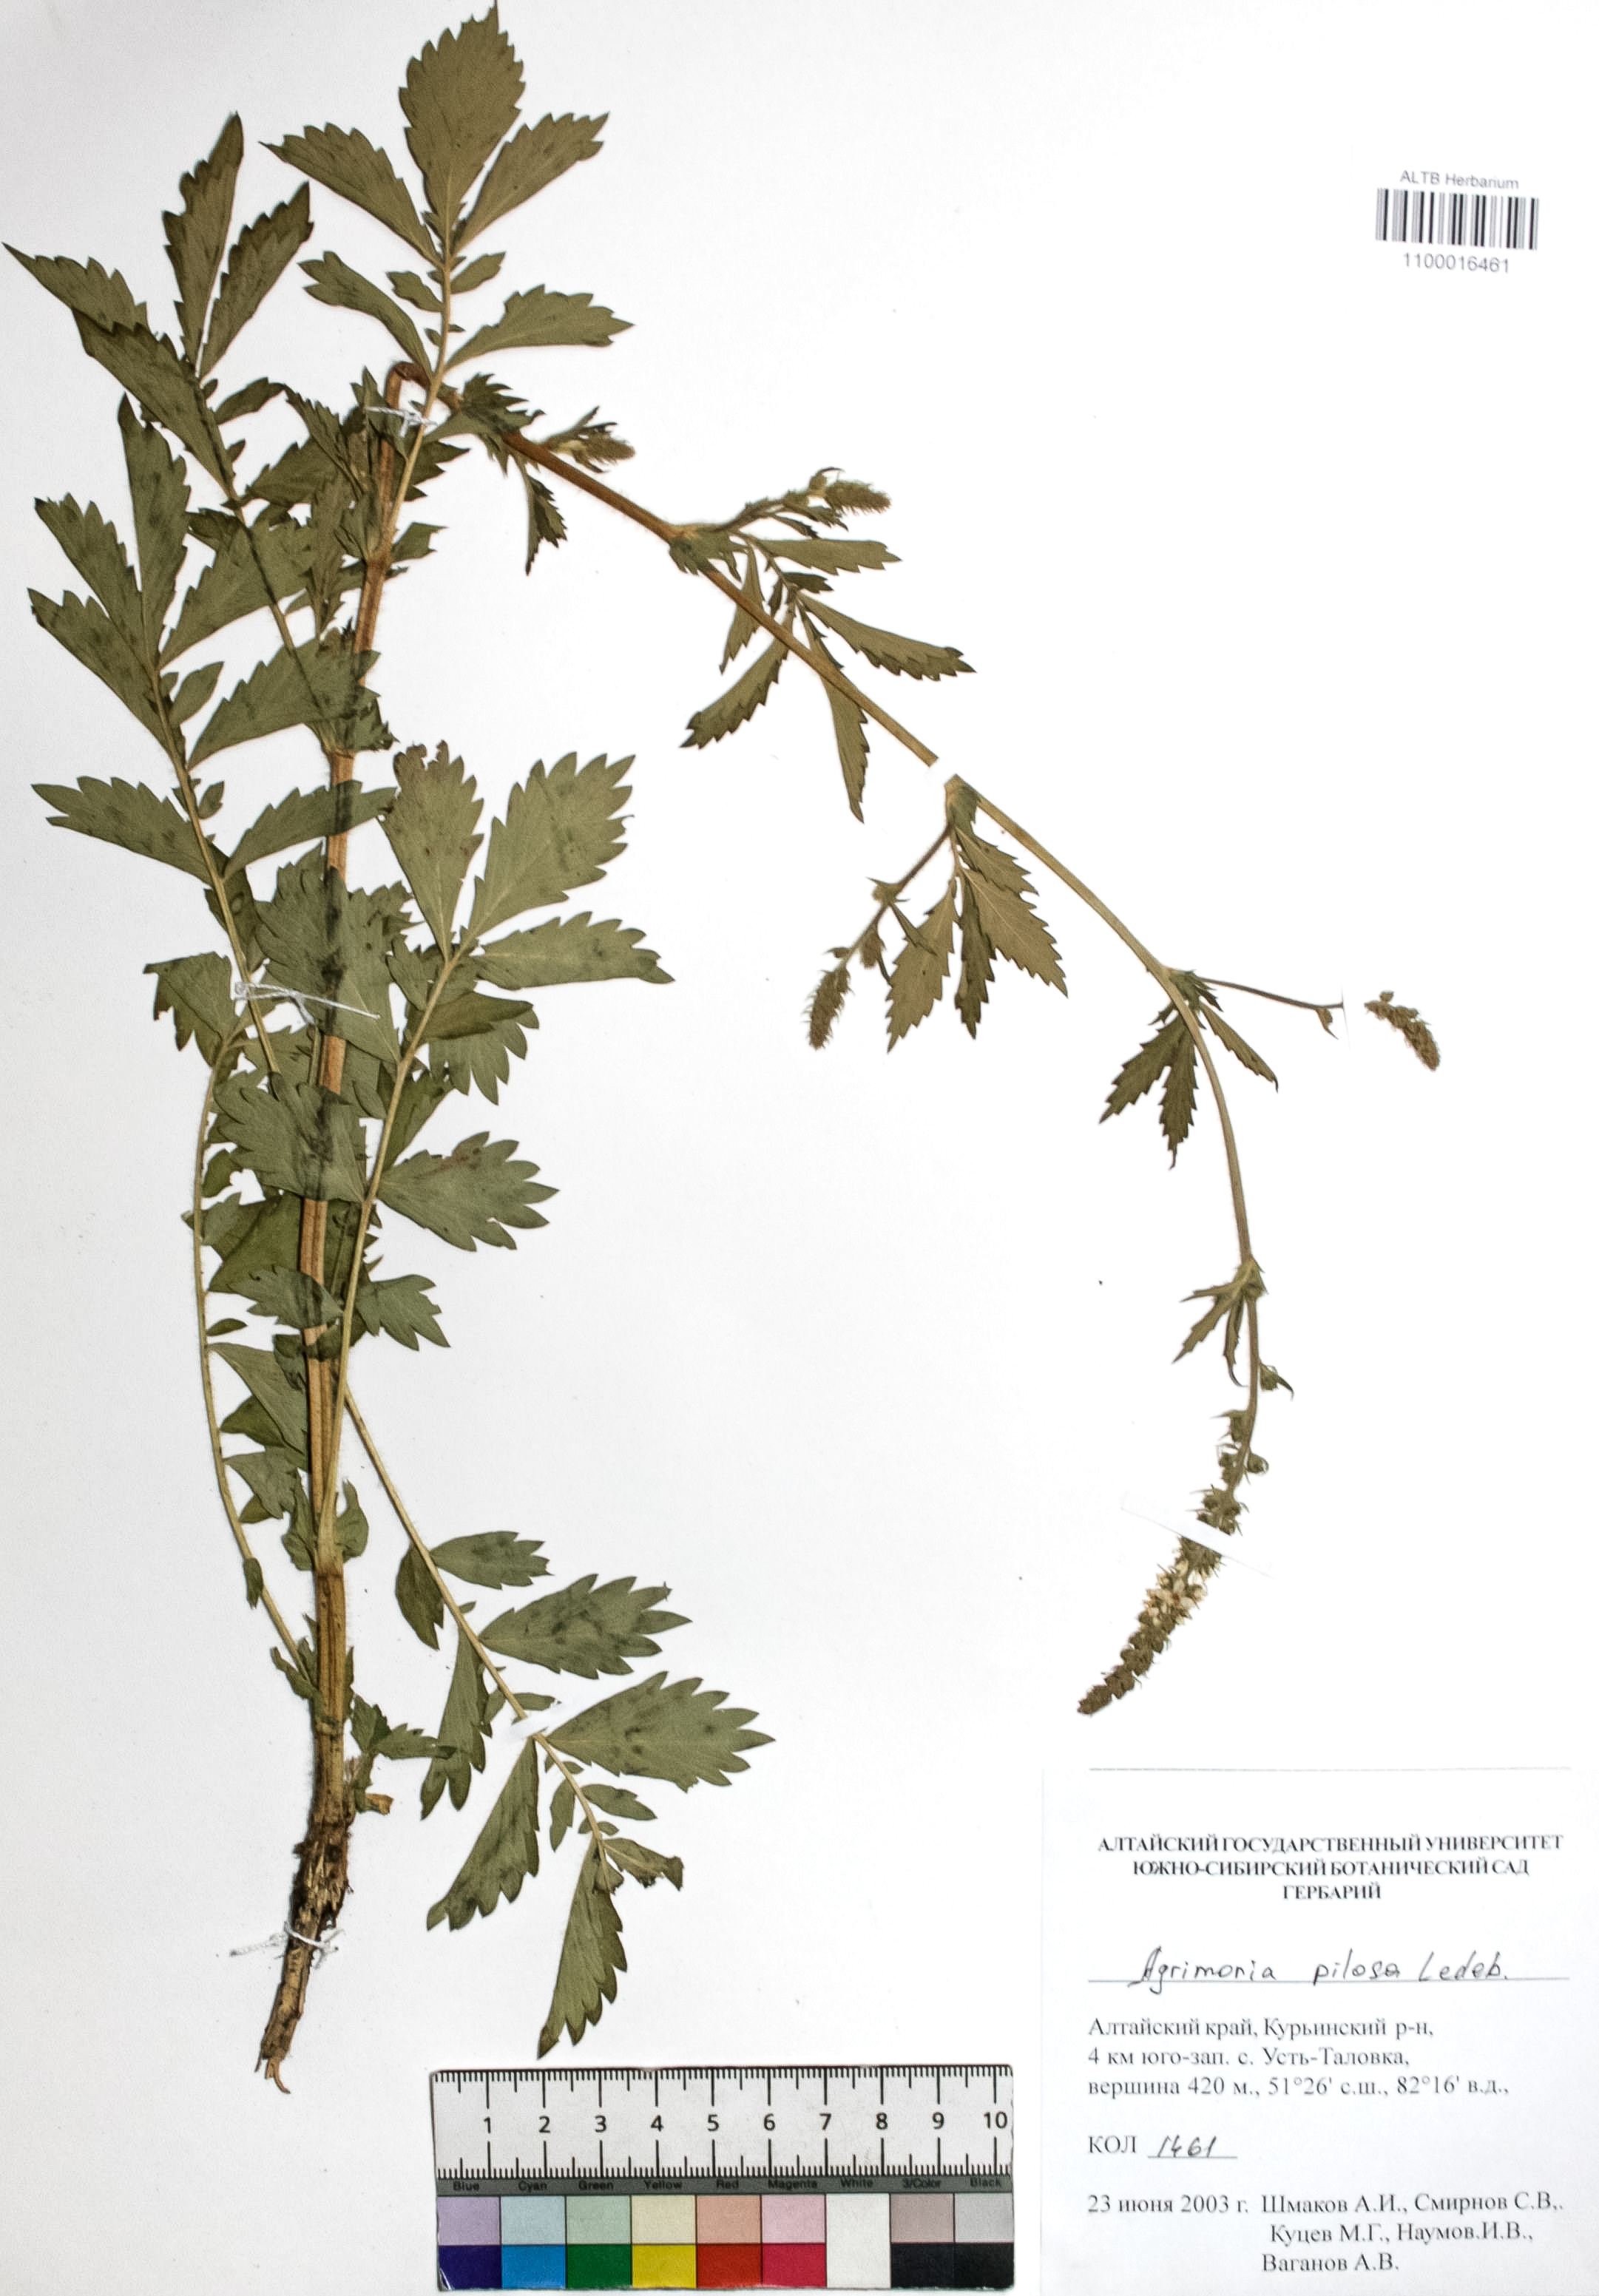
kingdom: Plantae
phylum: Tracheophyta
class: Magnoliopsida
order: Rosales
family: Rosaceae
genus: Agrimonia
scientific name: Agrimonia pilosa
